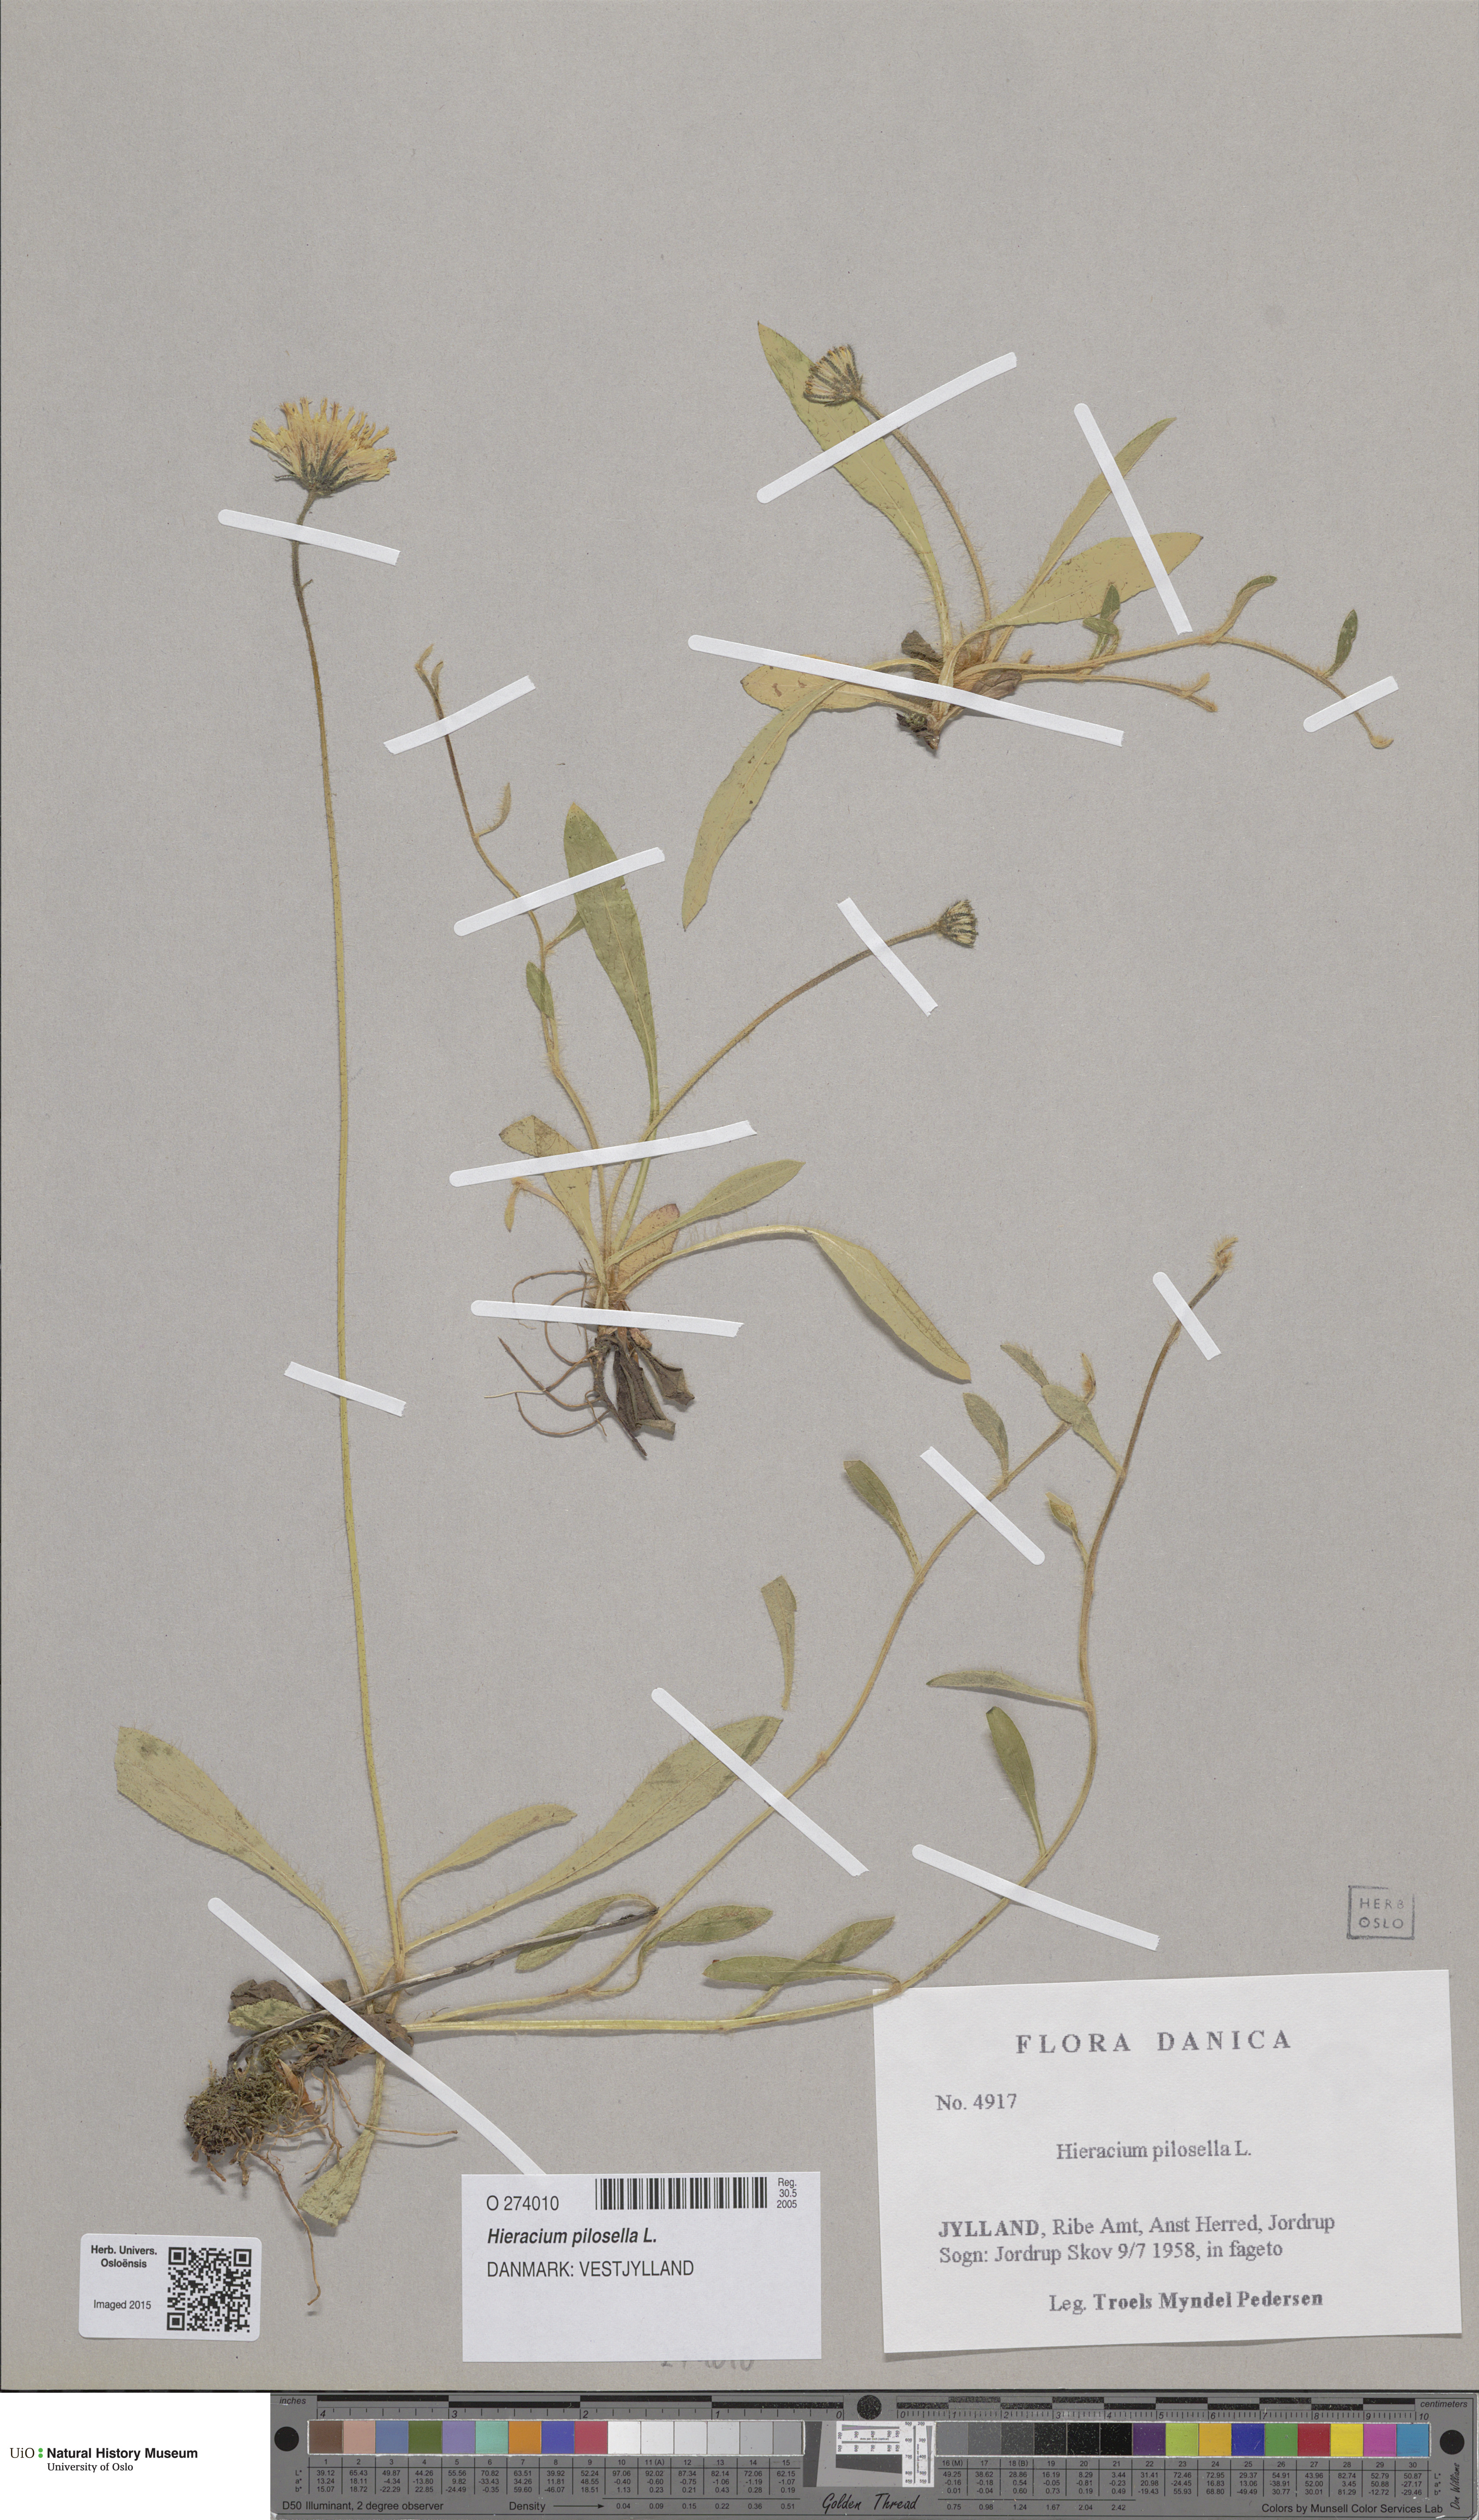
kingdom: Plantae
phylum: Tracheophyta
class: Magnoliopsida
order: Asterales
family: Asteraceae
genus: Pilosella
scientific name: Pilosella officinarum
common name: Mouse-ear hawkweed
